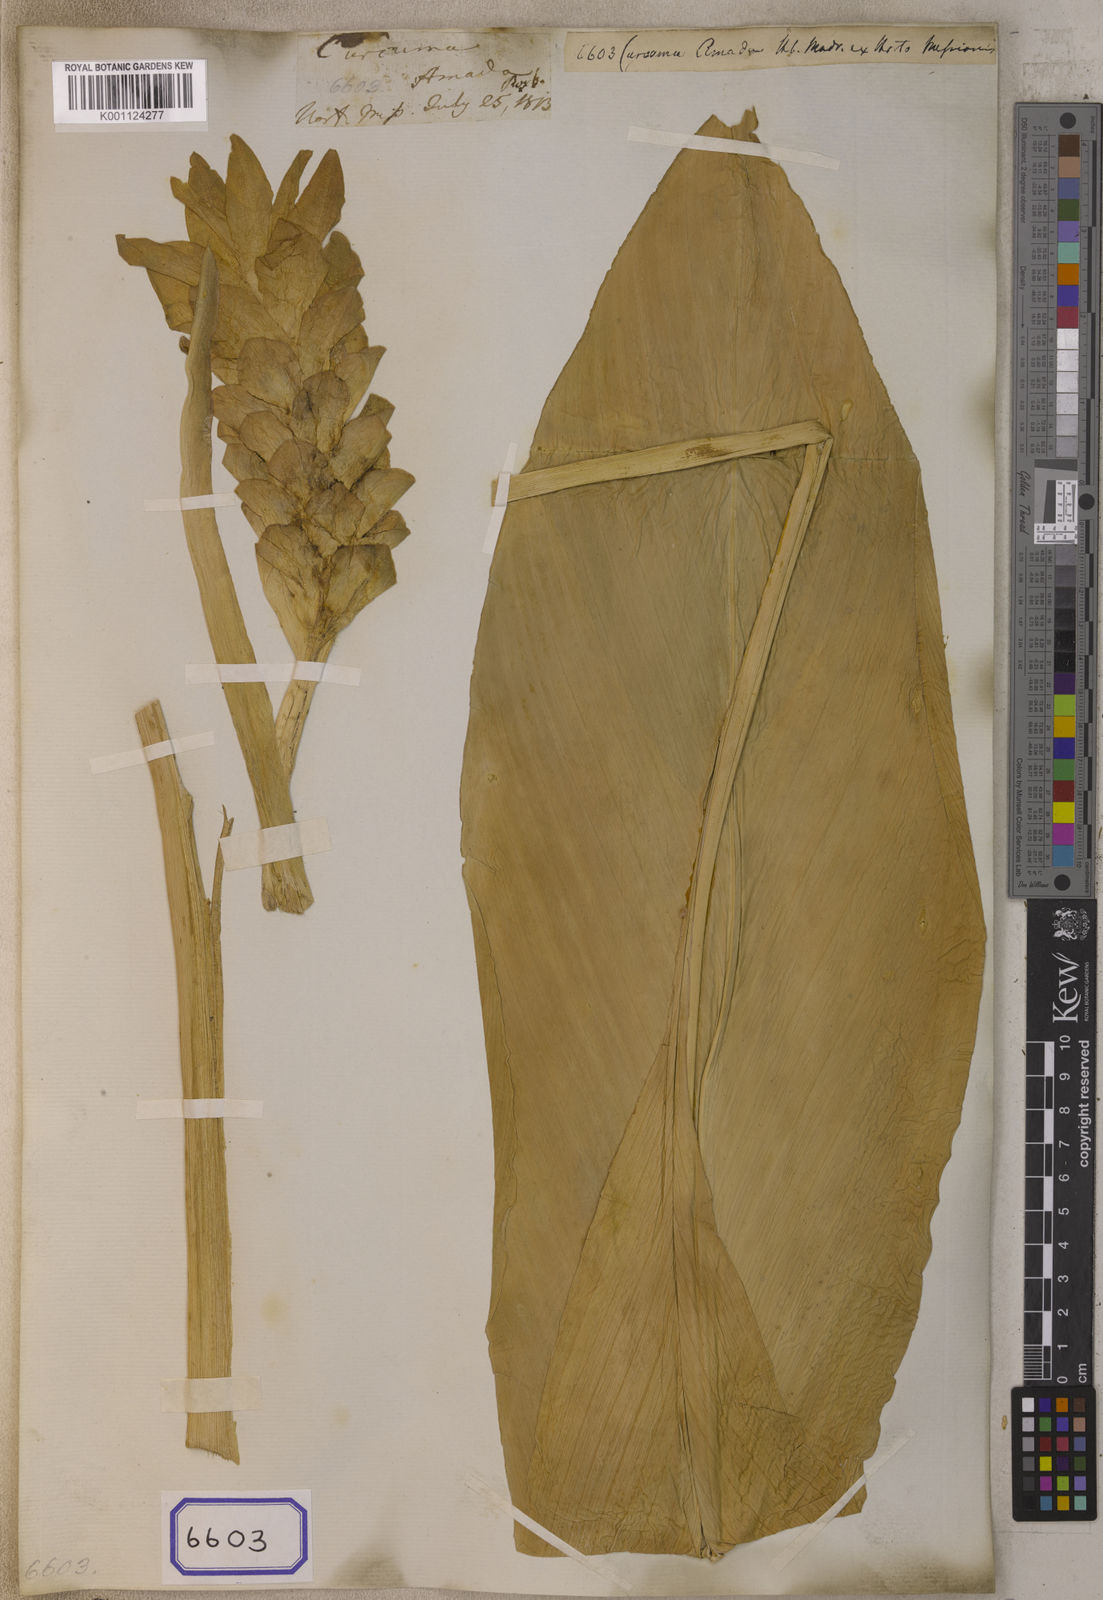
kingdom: Plantae
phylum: Tracheophyta
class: Liliopsida
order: Zingiberales
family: Zingiberaceae
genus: Curcuma
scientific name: Curcuma amada
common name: Mango-ginger
